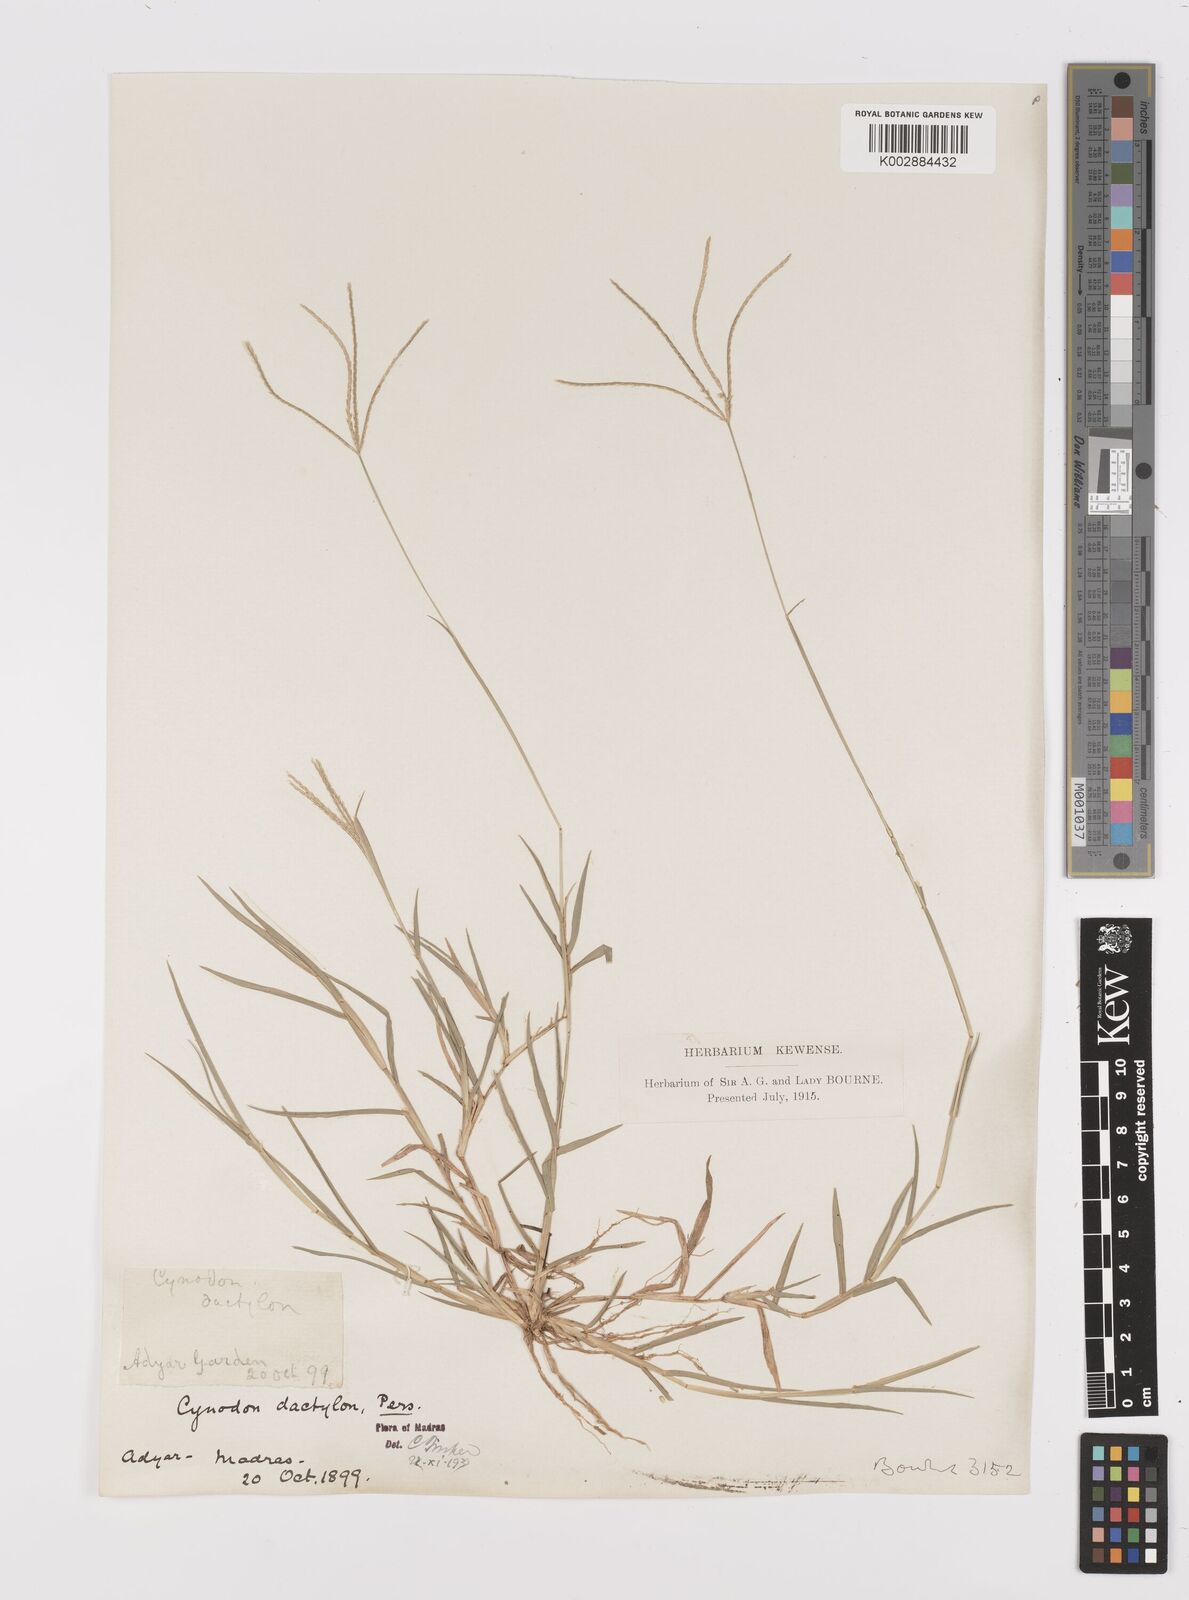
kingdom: Plantae
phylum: Tracheophyta
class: Liliopsida
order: Poales
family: Poaceae
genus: Cynodon
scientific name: Cynodon dactylon
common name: Bermuda grass
